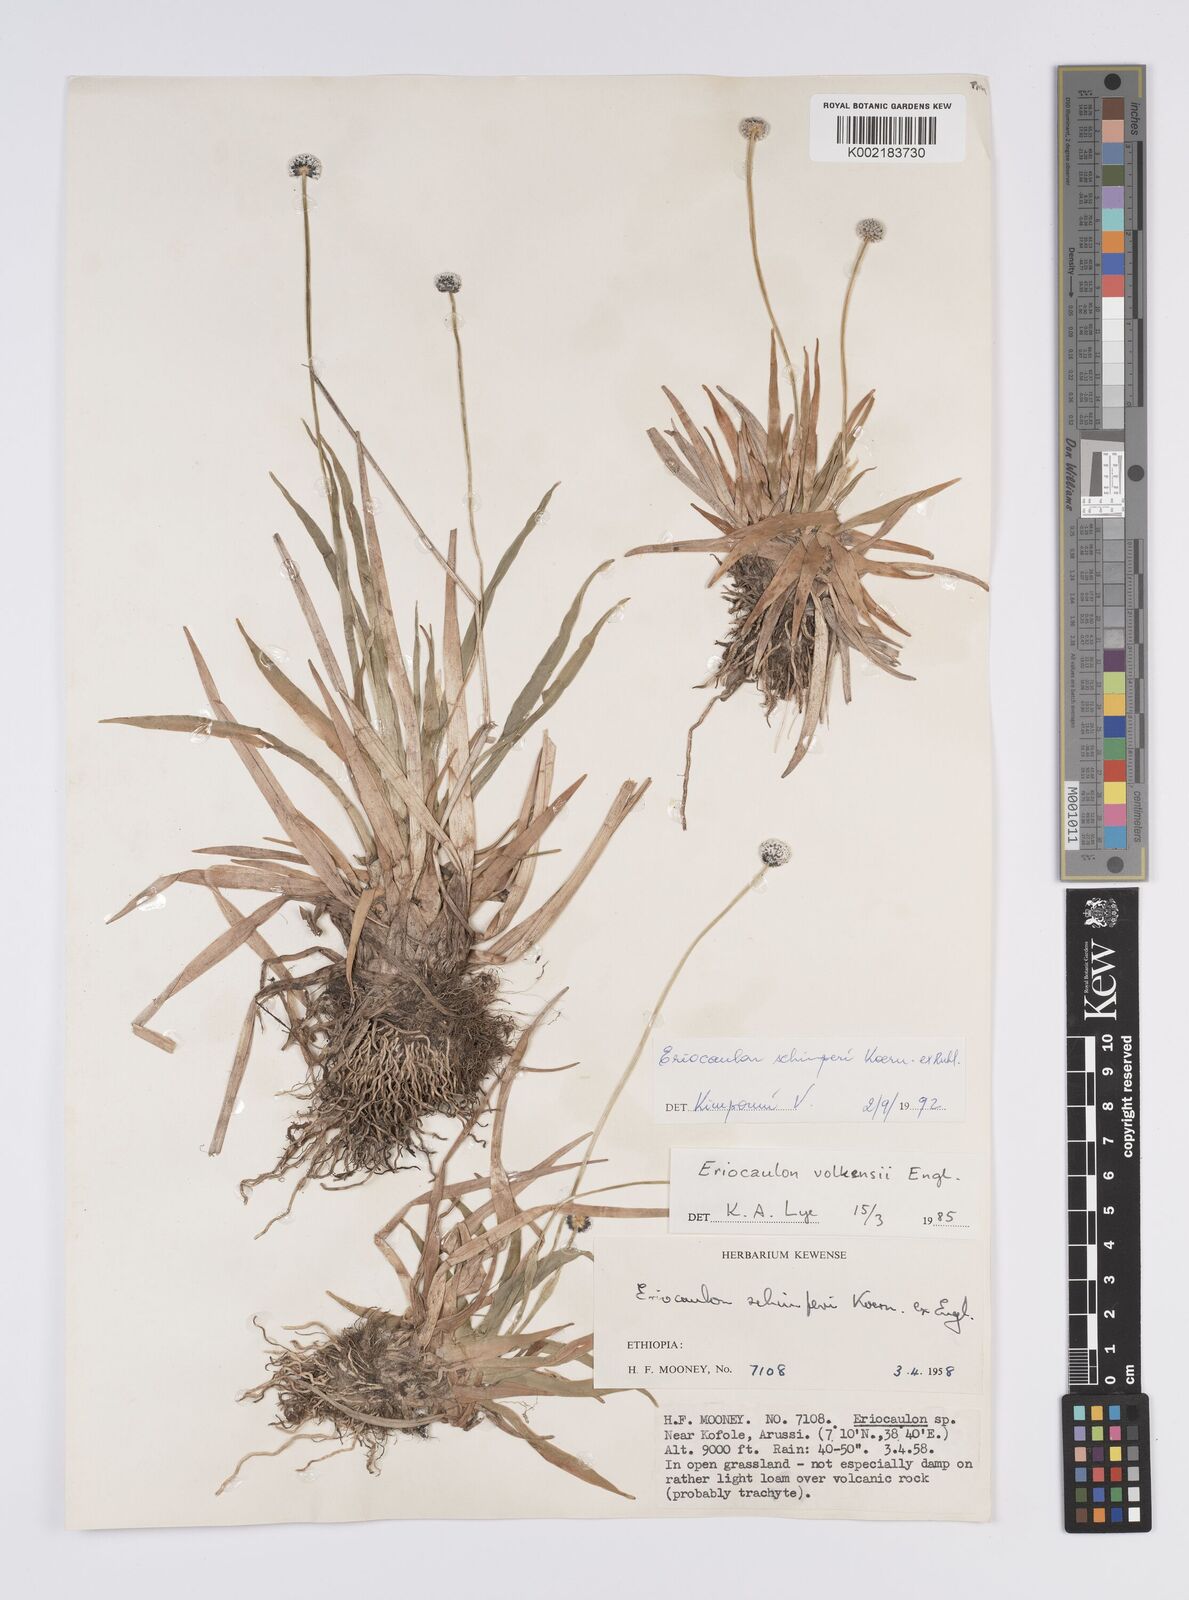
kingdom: Plantae
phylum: Tracheophyta
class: Liliopsida
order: Poales
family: Eriocaulaceae
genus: Eriocaulon
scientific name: Eriocaulon schimperi
